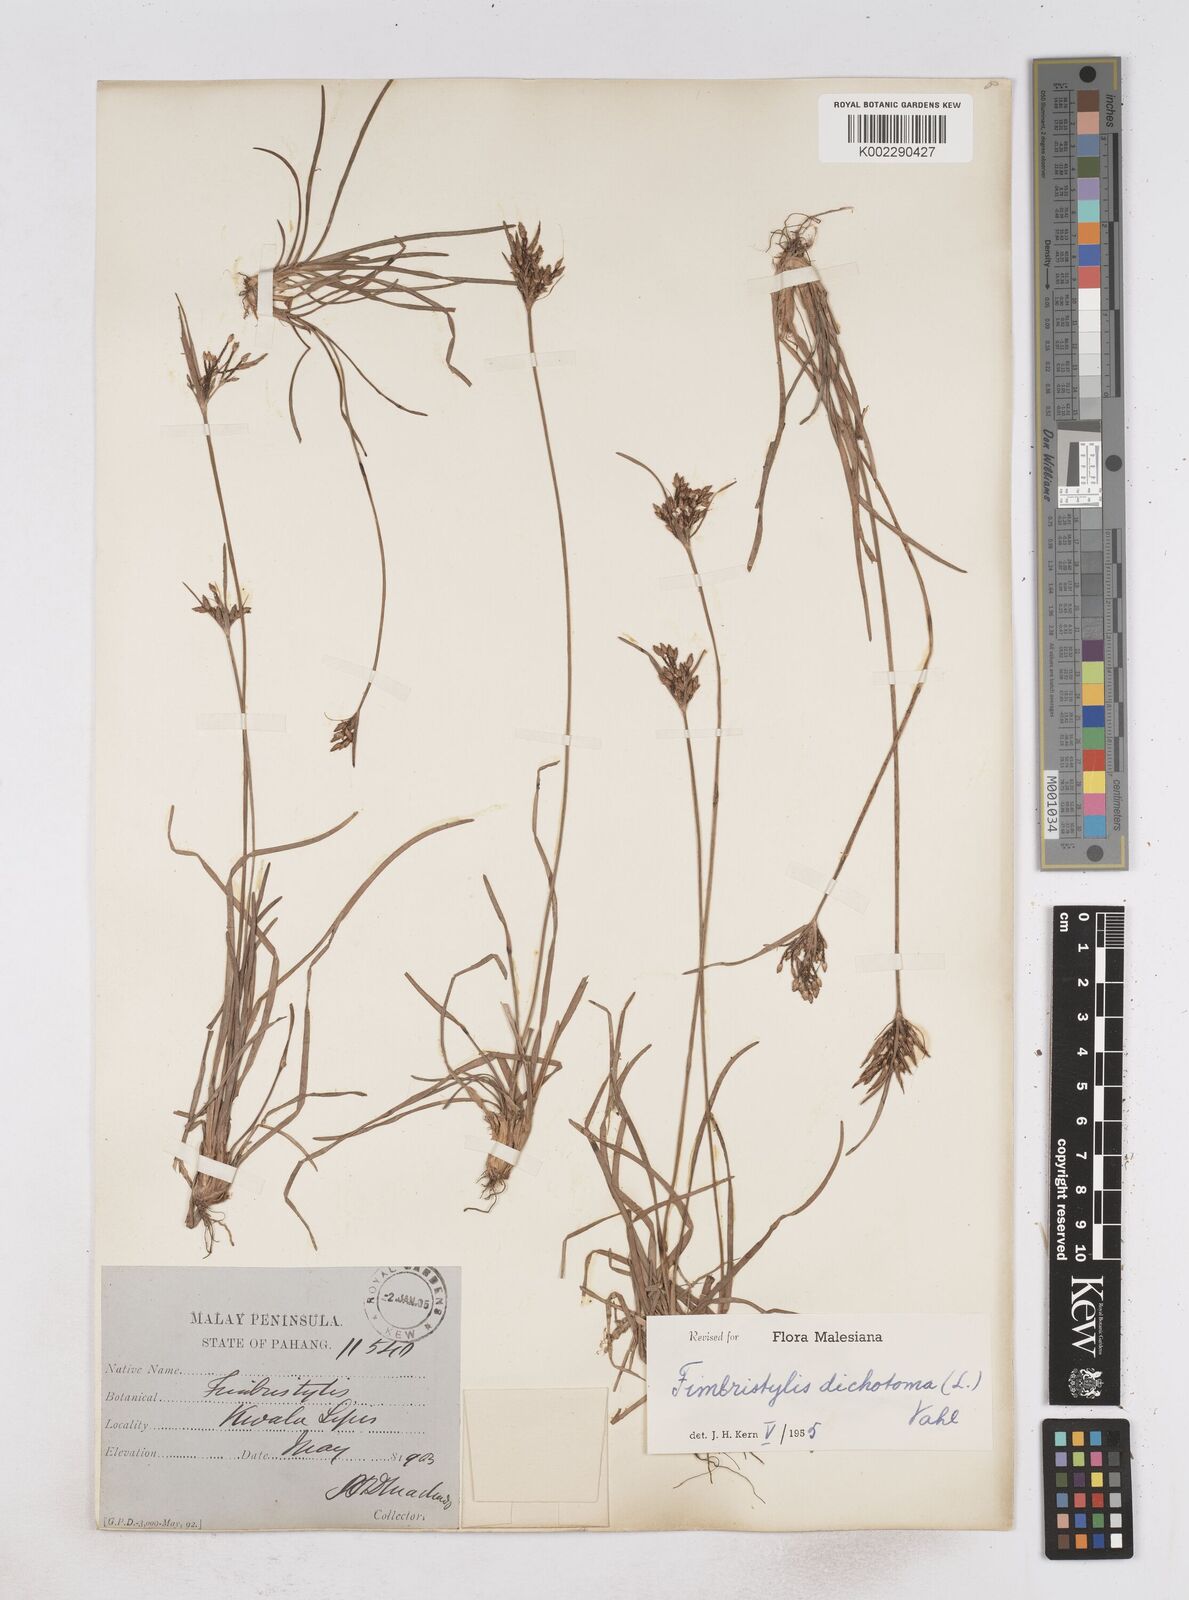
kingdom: Plantae
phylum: Tracheophyta
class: Liliopsida
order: Poales
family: Cyperaceae
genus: Fimbristylis
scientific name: Fimbristylis dichotoma
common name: Forked fimbry
